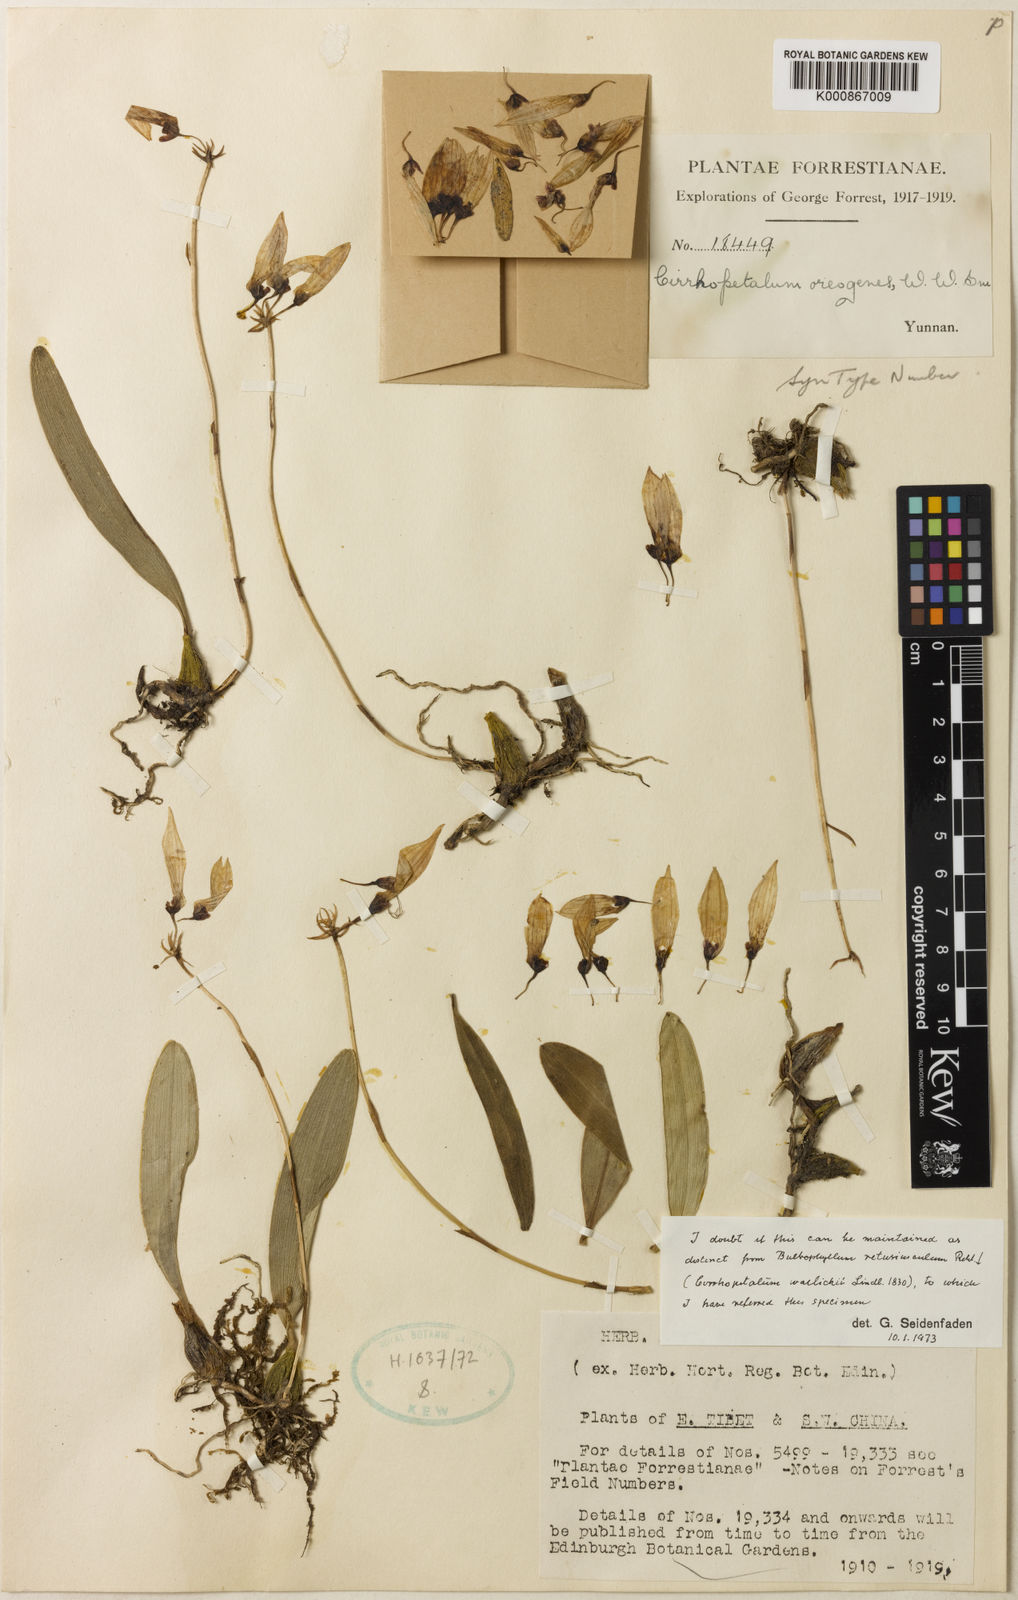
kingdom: Plantae
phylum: Tracheophyta
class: Liliopsida
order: Asparagales
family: Orchidaceae
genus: Bulbophyllum
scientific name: Bulbophyllum retusiusculum
